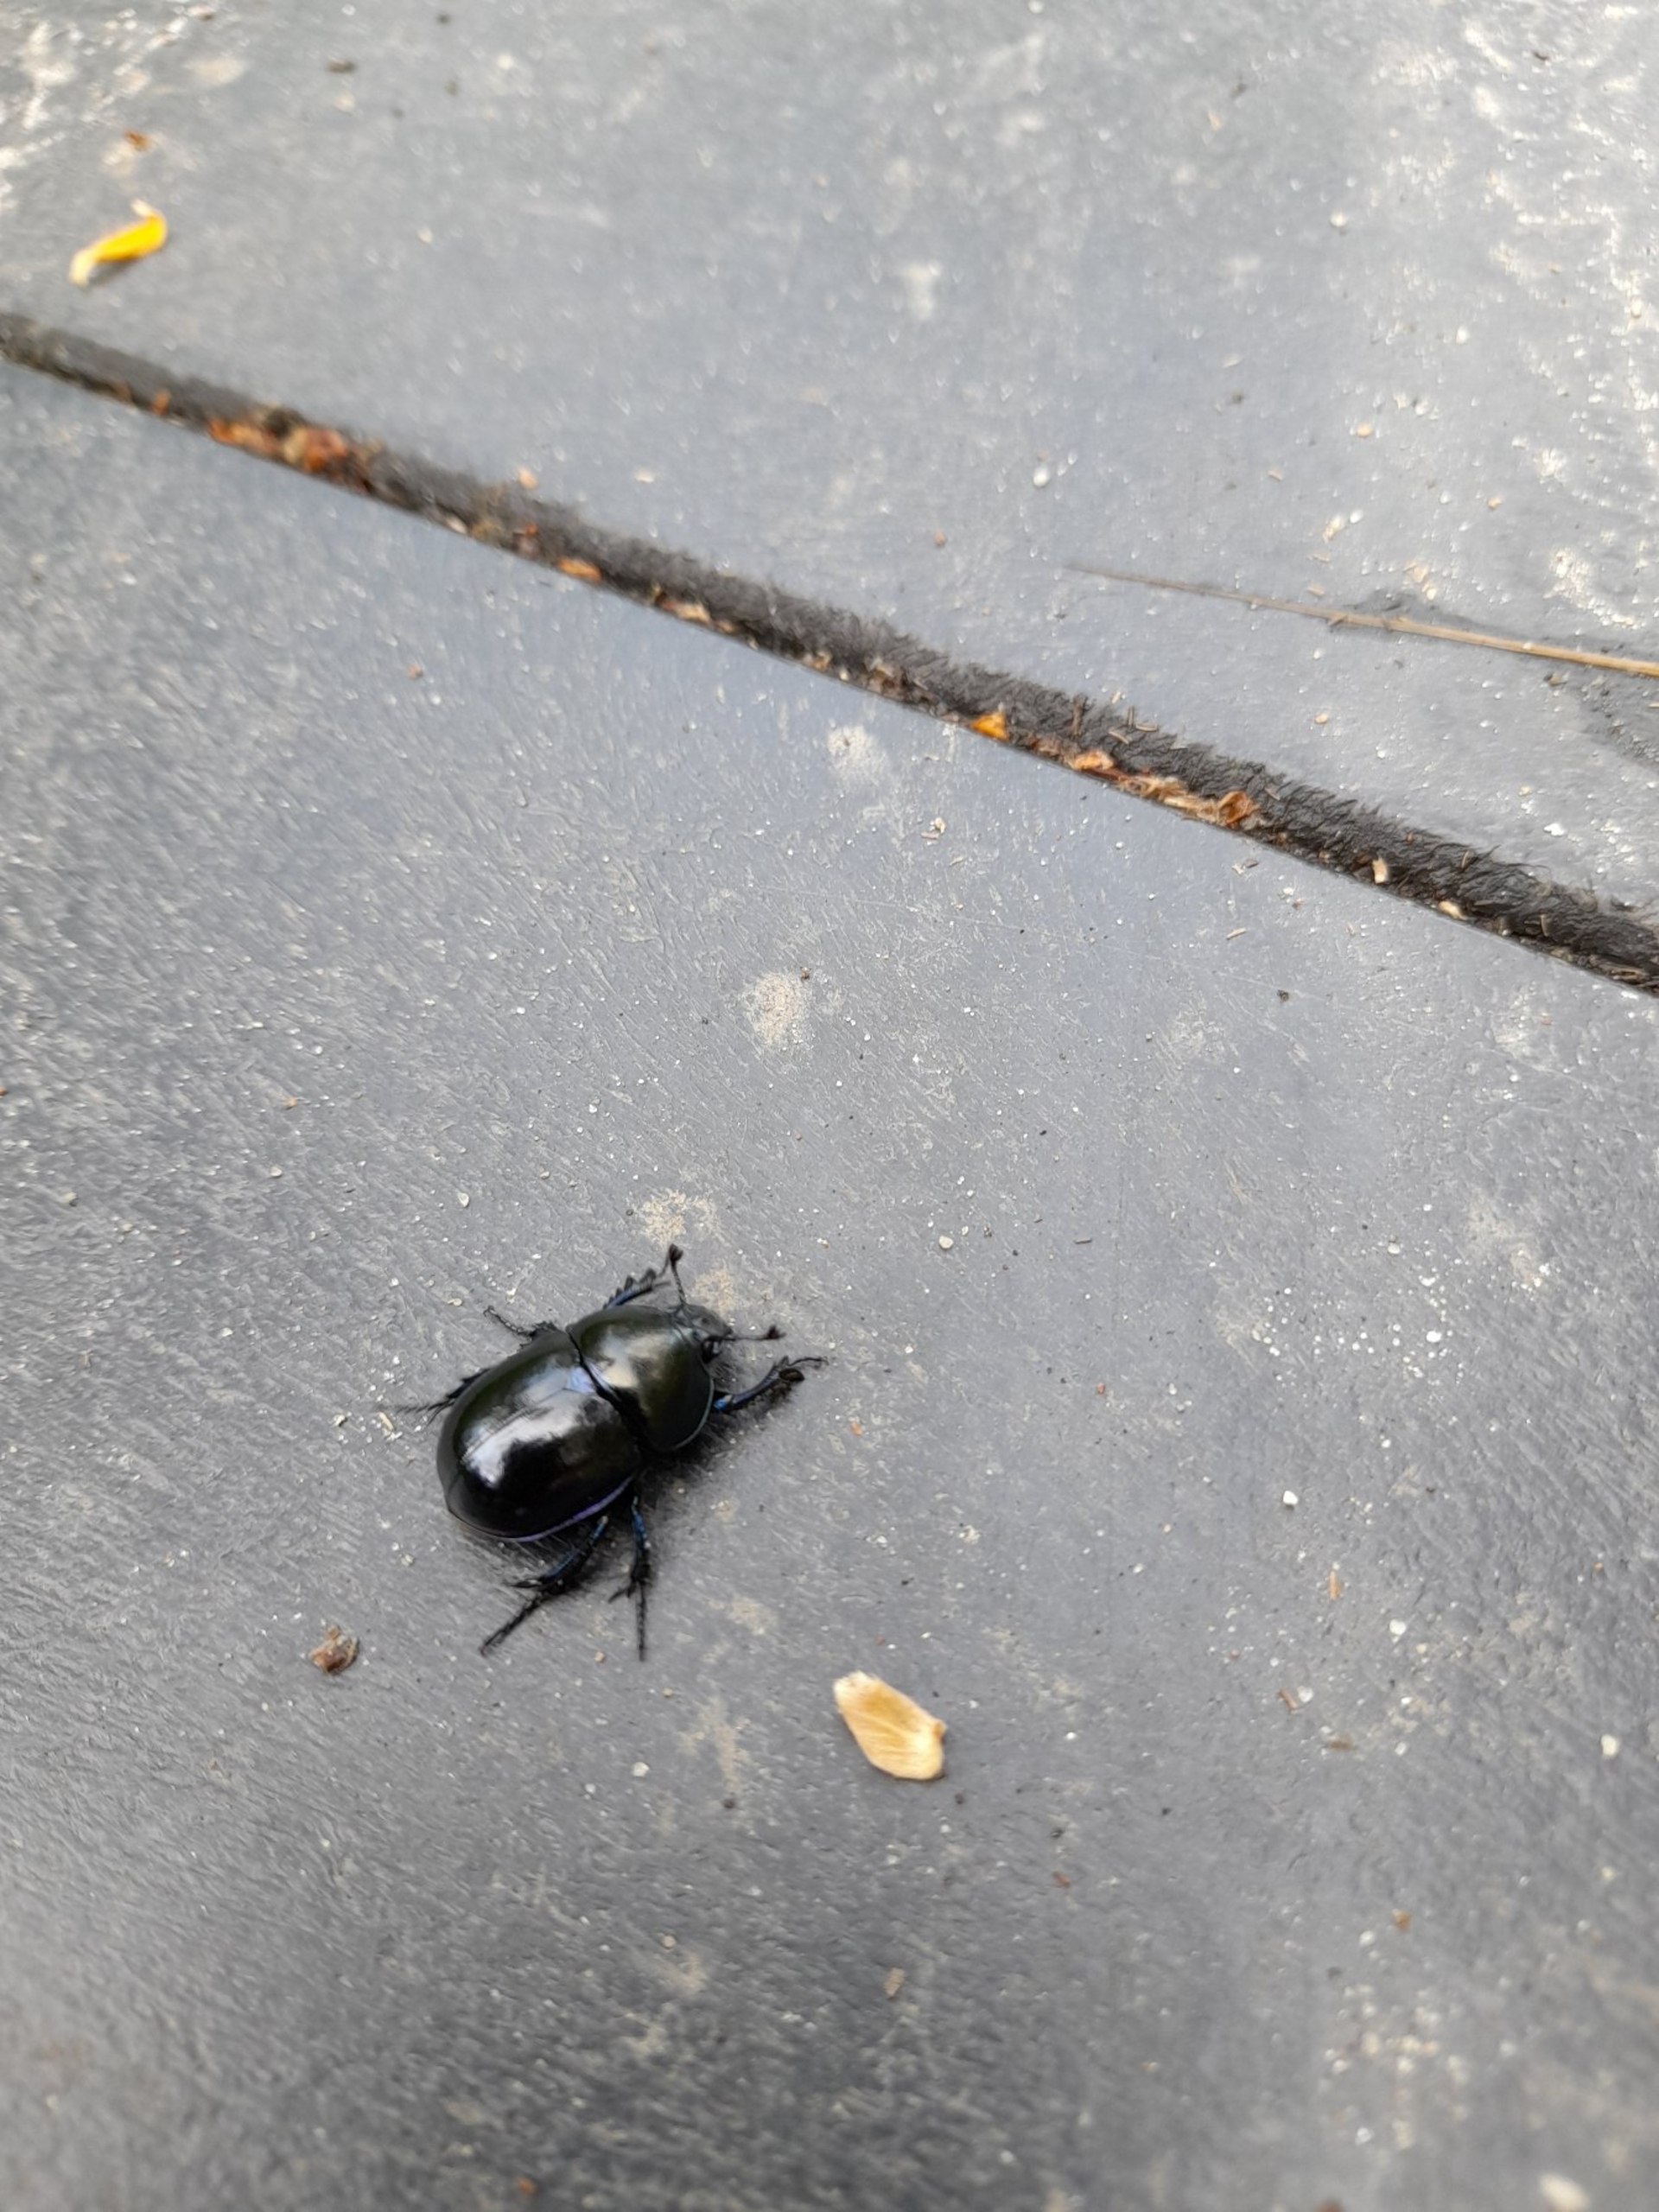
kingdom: Animalia
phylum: Arthropoda
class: Insecta
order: Coleoptera
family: Geotrupidae
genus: Trypocopris
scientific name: Trypocopris vernalis
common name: Glat skarnbasse
